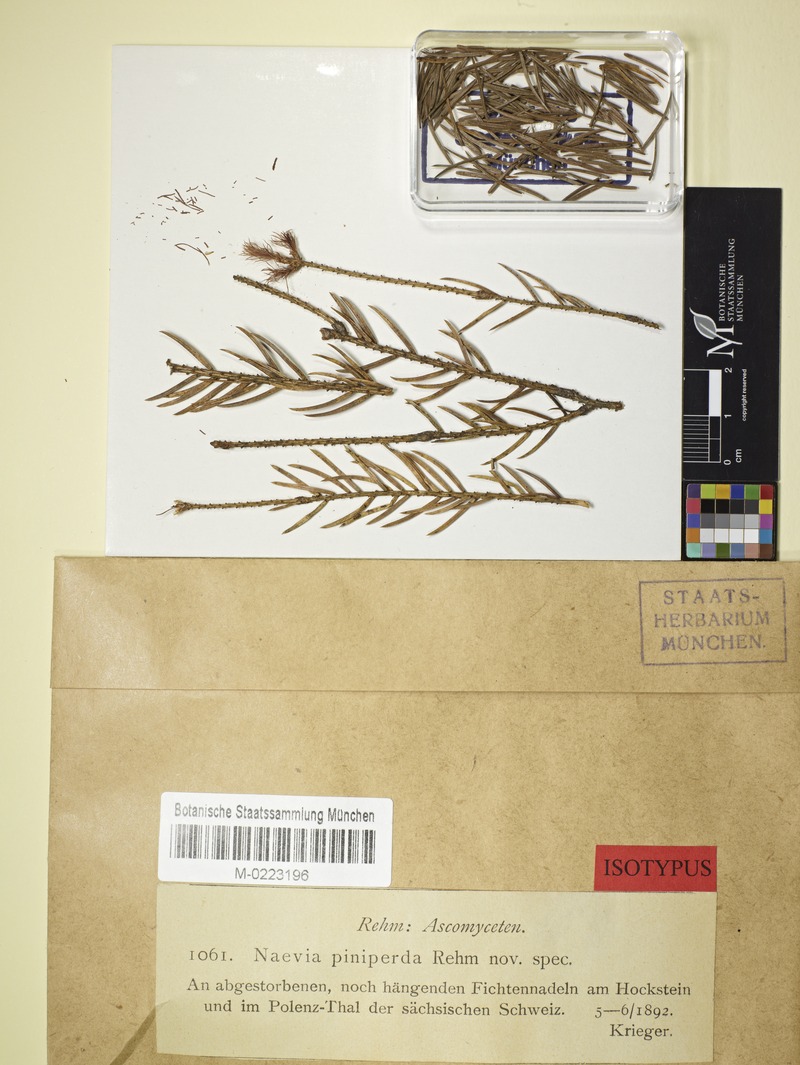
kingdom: Fungi
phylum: Ascomycota
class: Leotiomycetes
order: Helotiales
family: Cenangiaceae
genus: Sarcotrochila
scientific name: Sarcotrochila piniperda
